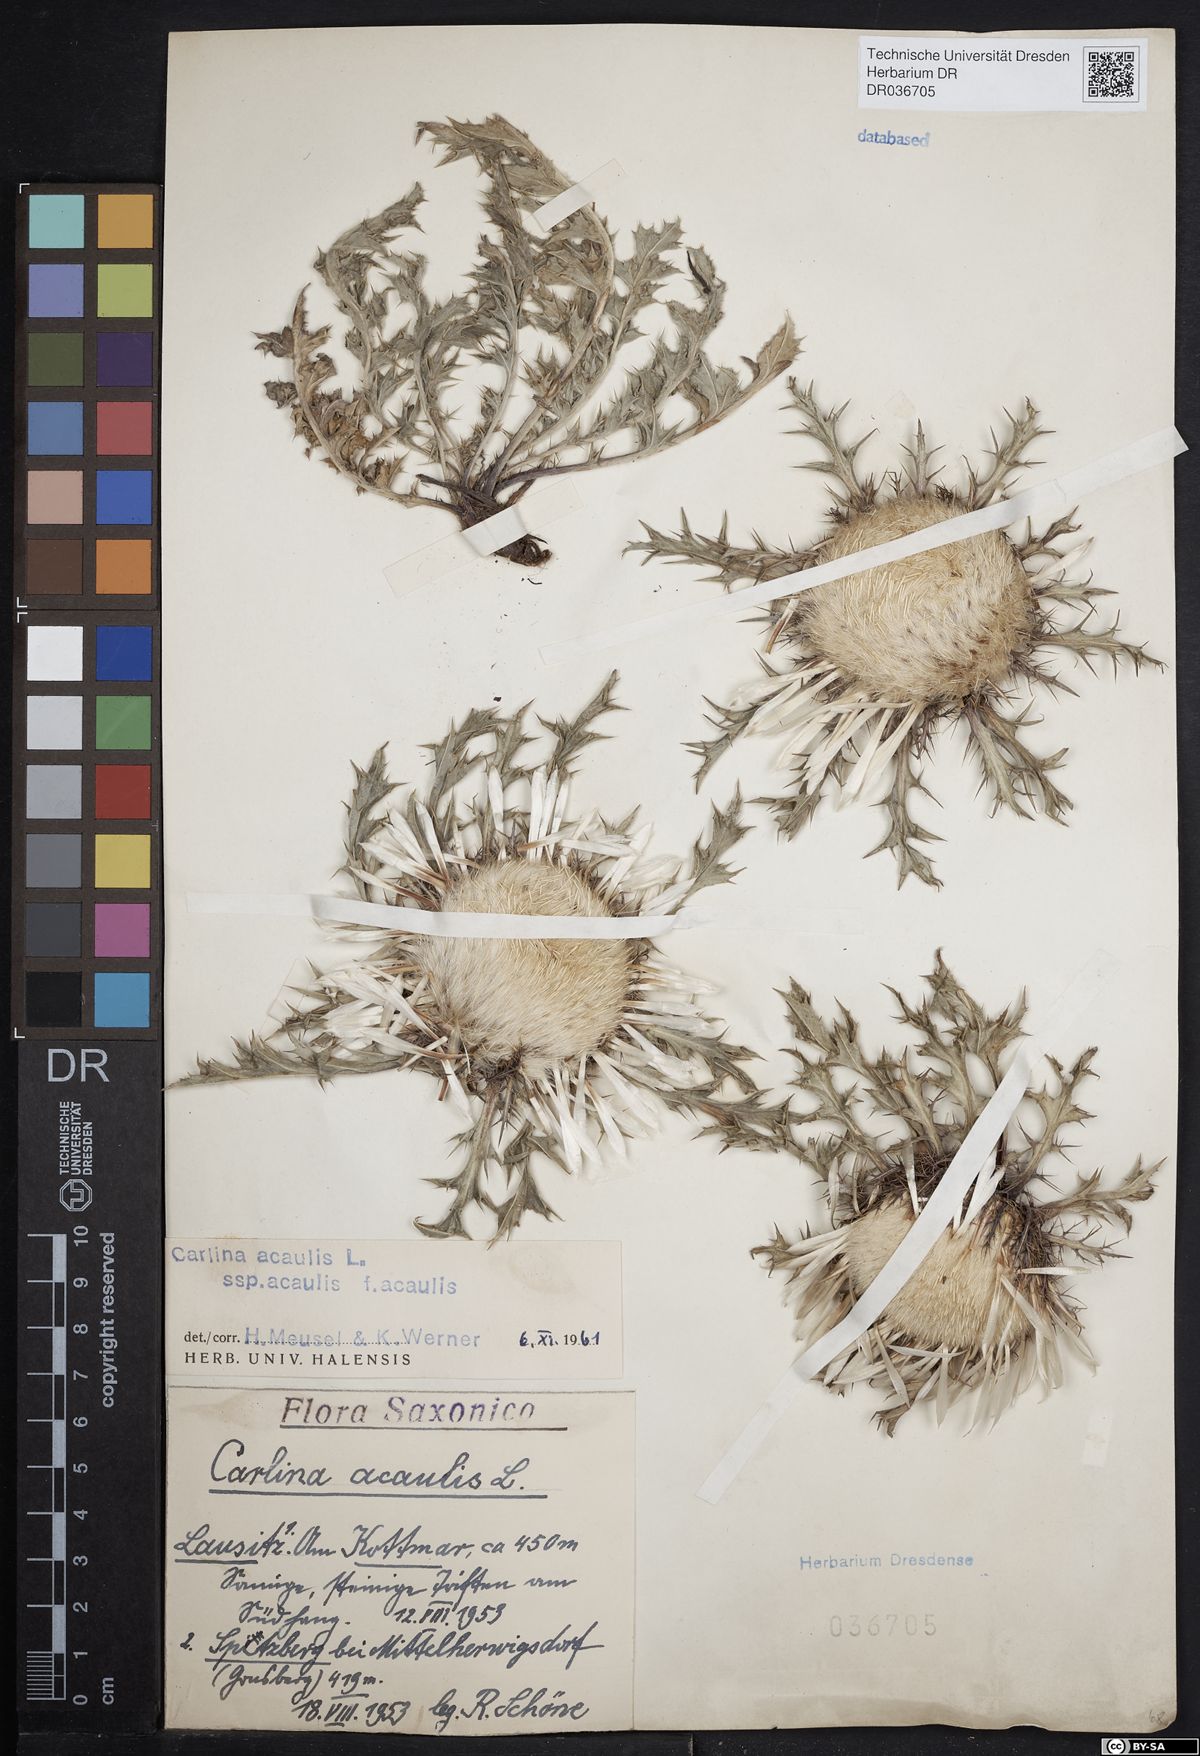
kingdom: Plantae
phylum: Tracheophyta
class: Magnoliopsida
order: Asterales
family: Asteraceae
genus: Carlina
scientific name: Carlina acaulis
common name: Stemless carline thistle
